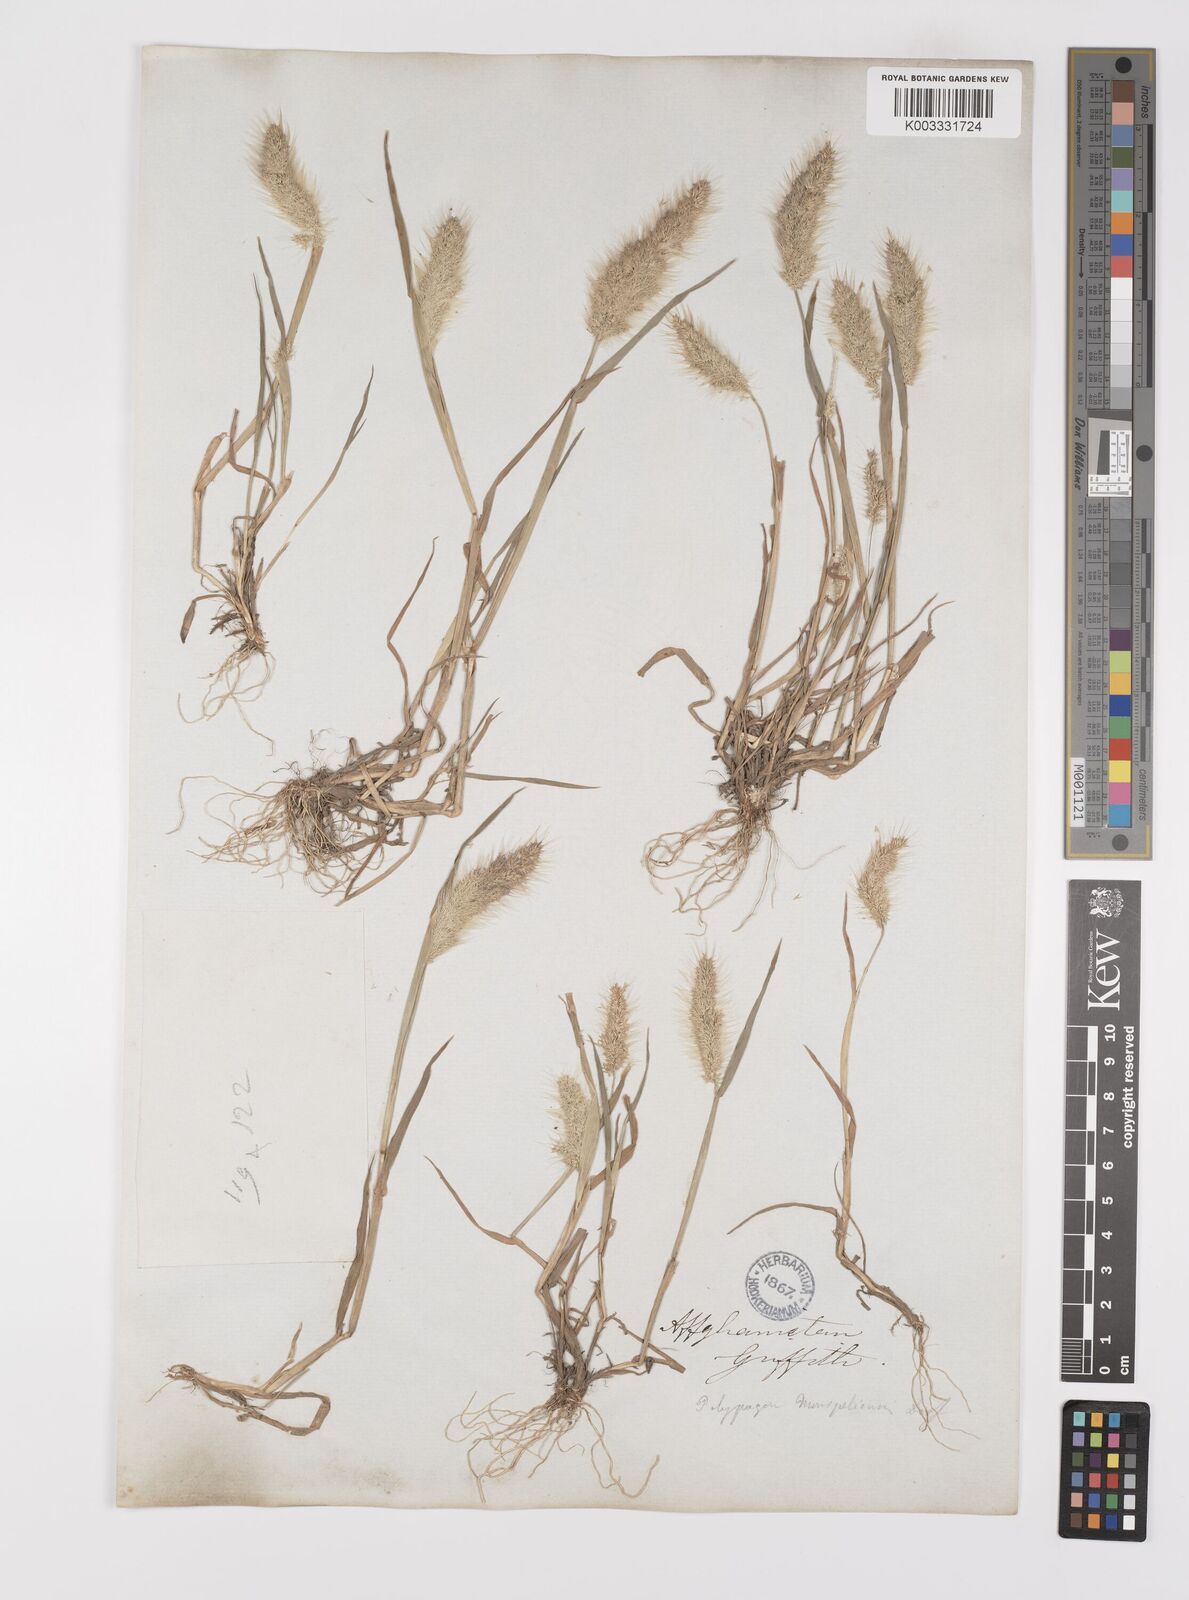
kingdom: Plantae
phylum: Tracheophyta
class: Liliopsida
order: Poales
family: Poaceae
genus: Polypogon
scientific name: Polypogon monspeliensis
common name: Annual rabbitsfoot grass
